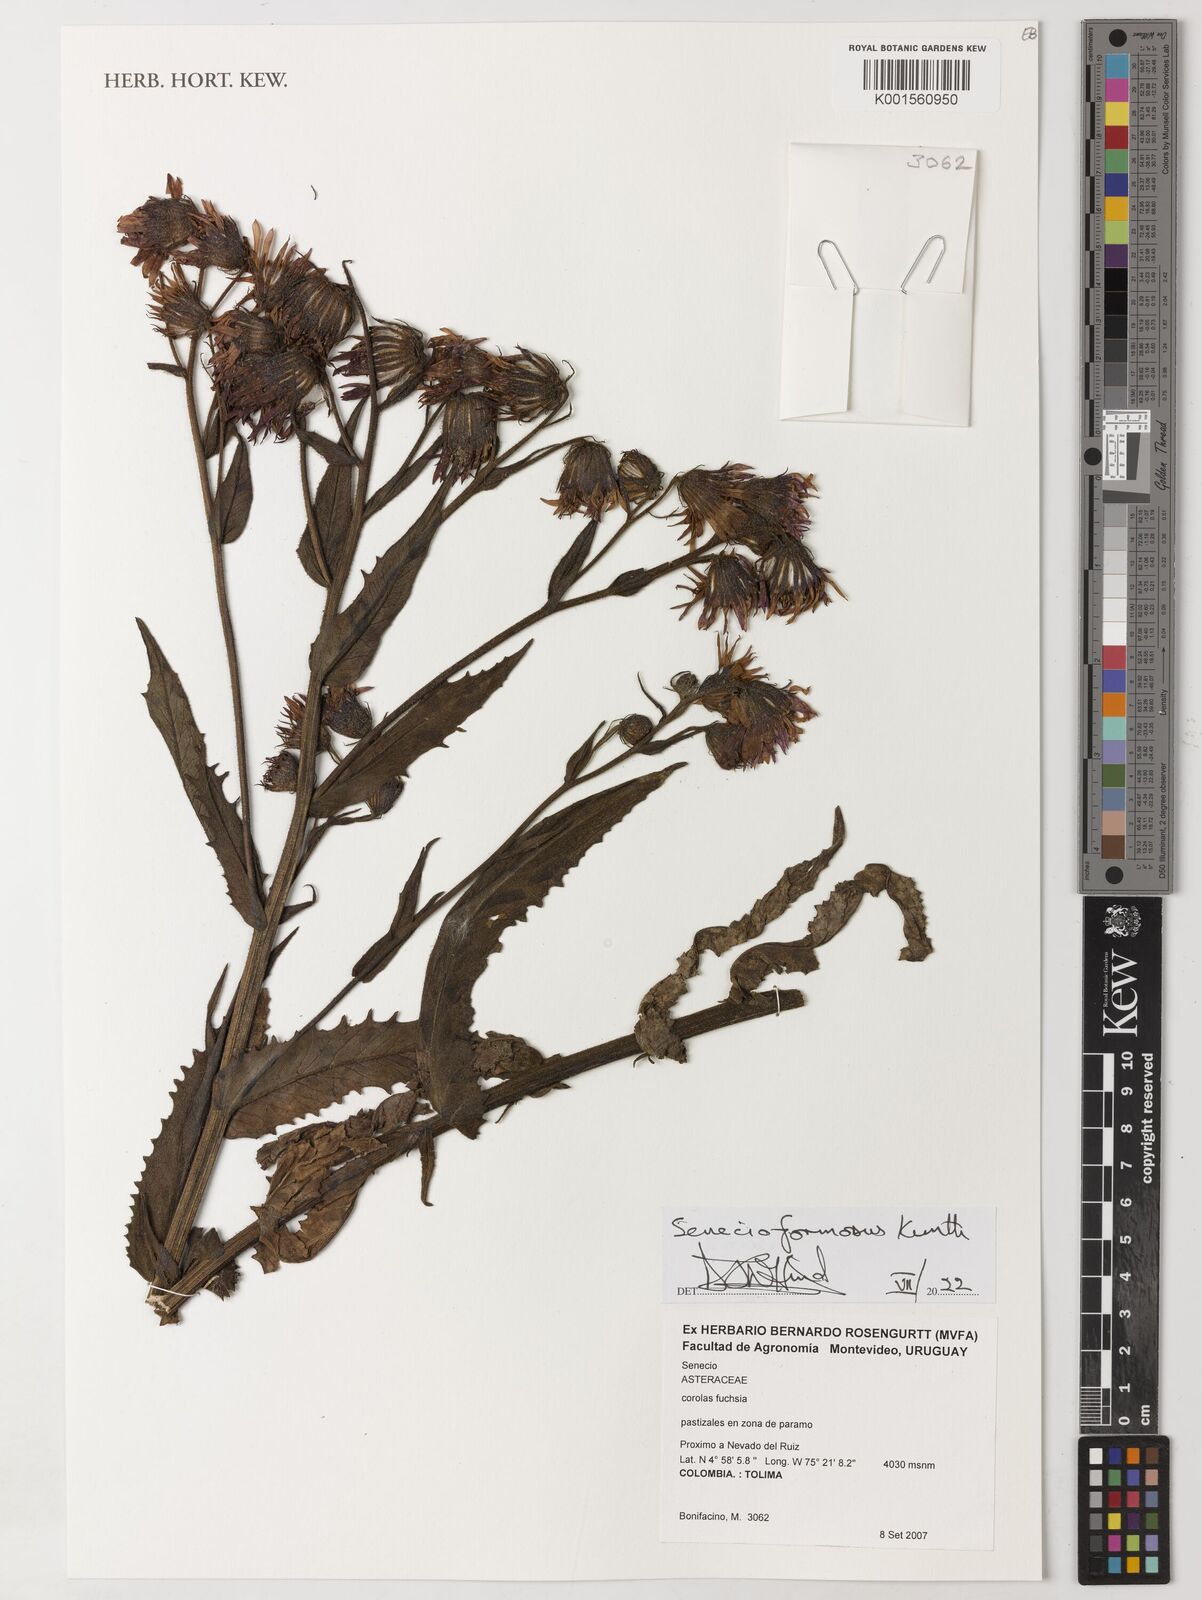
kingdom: Plantae
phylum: Tracheophyta
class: Magnoliopsida
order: Asterales
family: Asteraceae
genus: Senecio
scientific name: Senecio formosus
